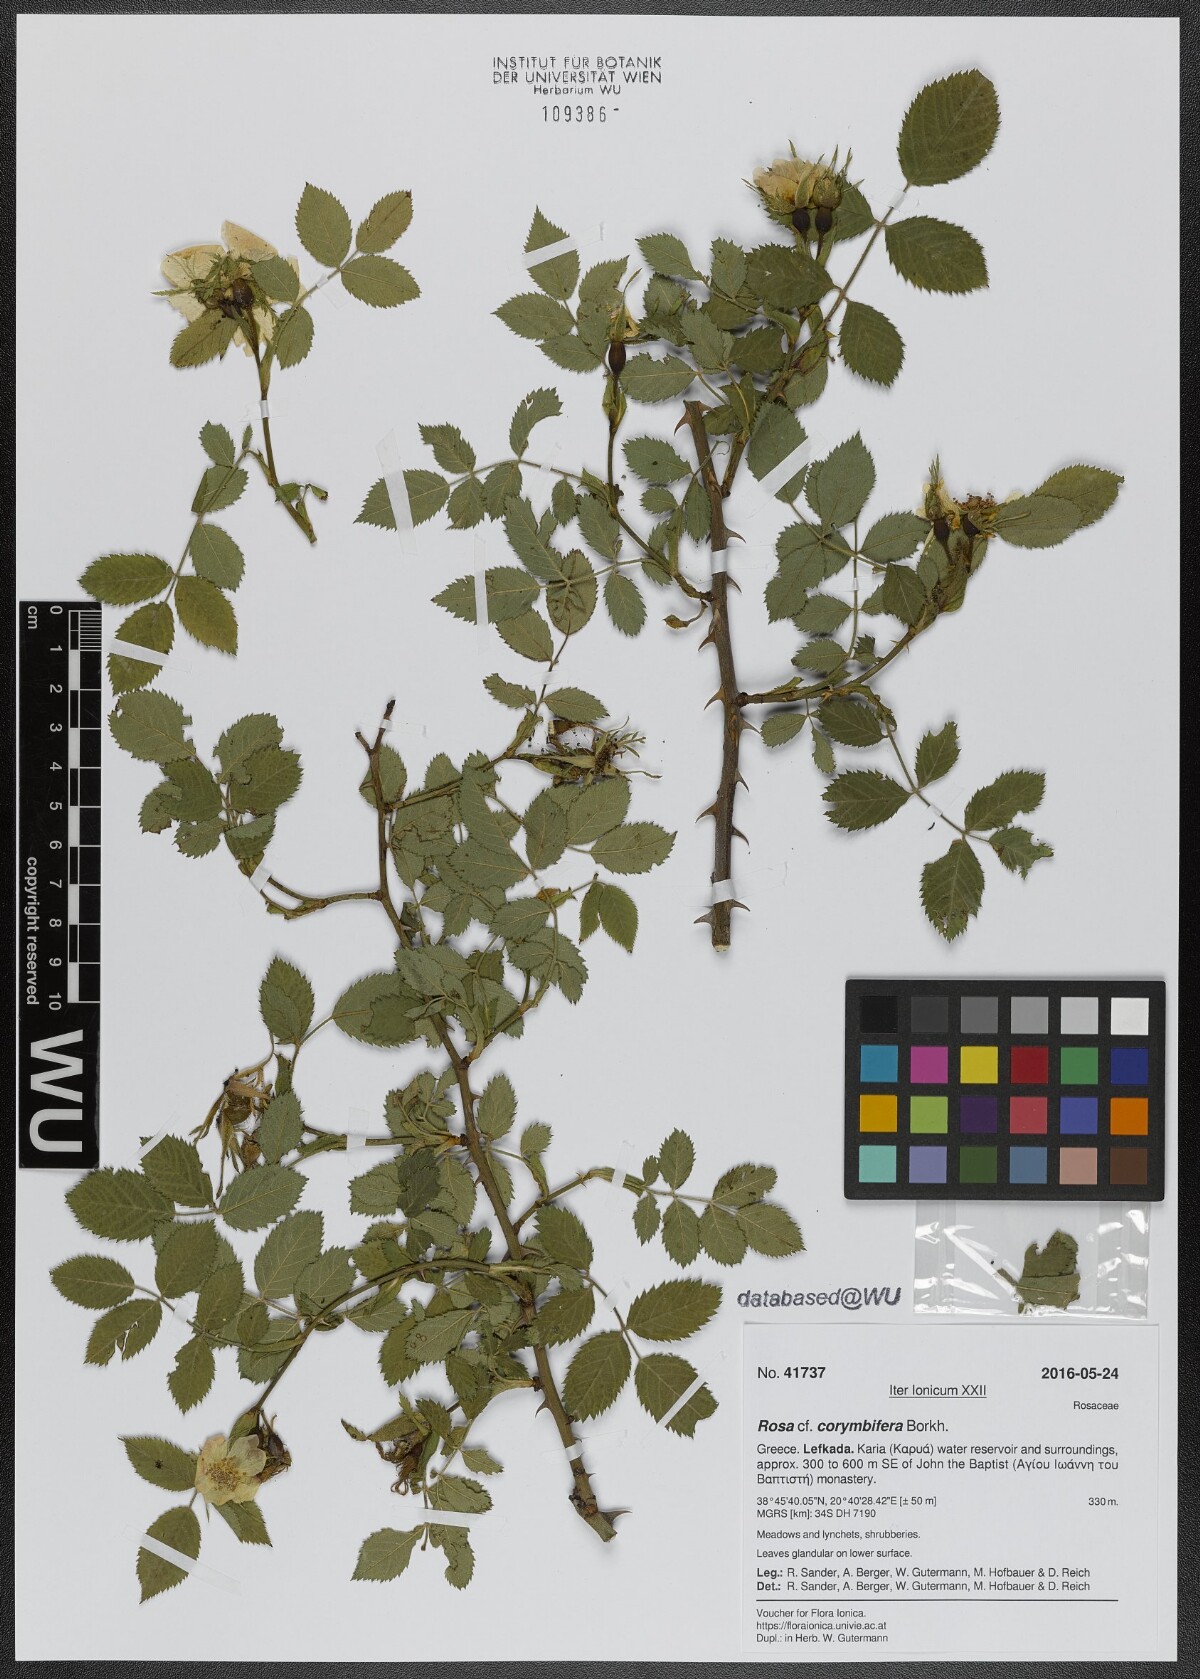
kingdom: Plantae
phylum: Tracheophyta
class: Magnoliopsida
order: Rosales
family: Rosaceae
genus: Rosa
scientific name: Rosa corymbifera
